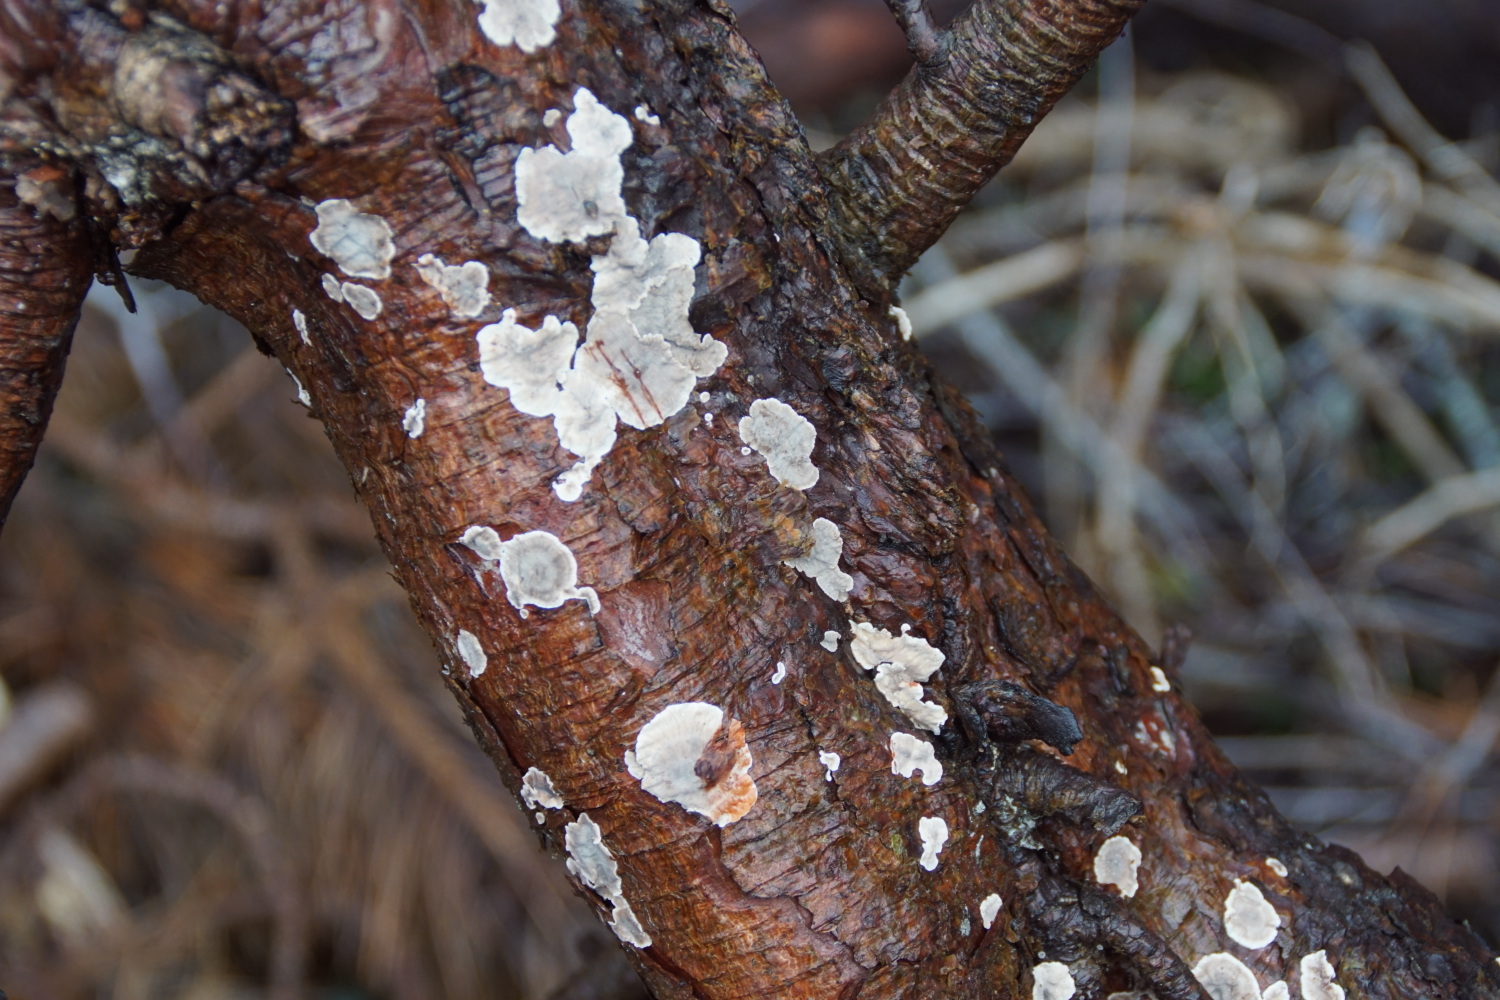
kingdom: Fungi
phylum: Basidiomycota
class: Agaricomycetes
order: Russulales
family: Stereaceae
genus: Stereum
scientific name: Stereum sanguinolentum
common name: blødende lædersvamp
